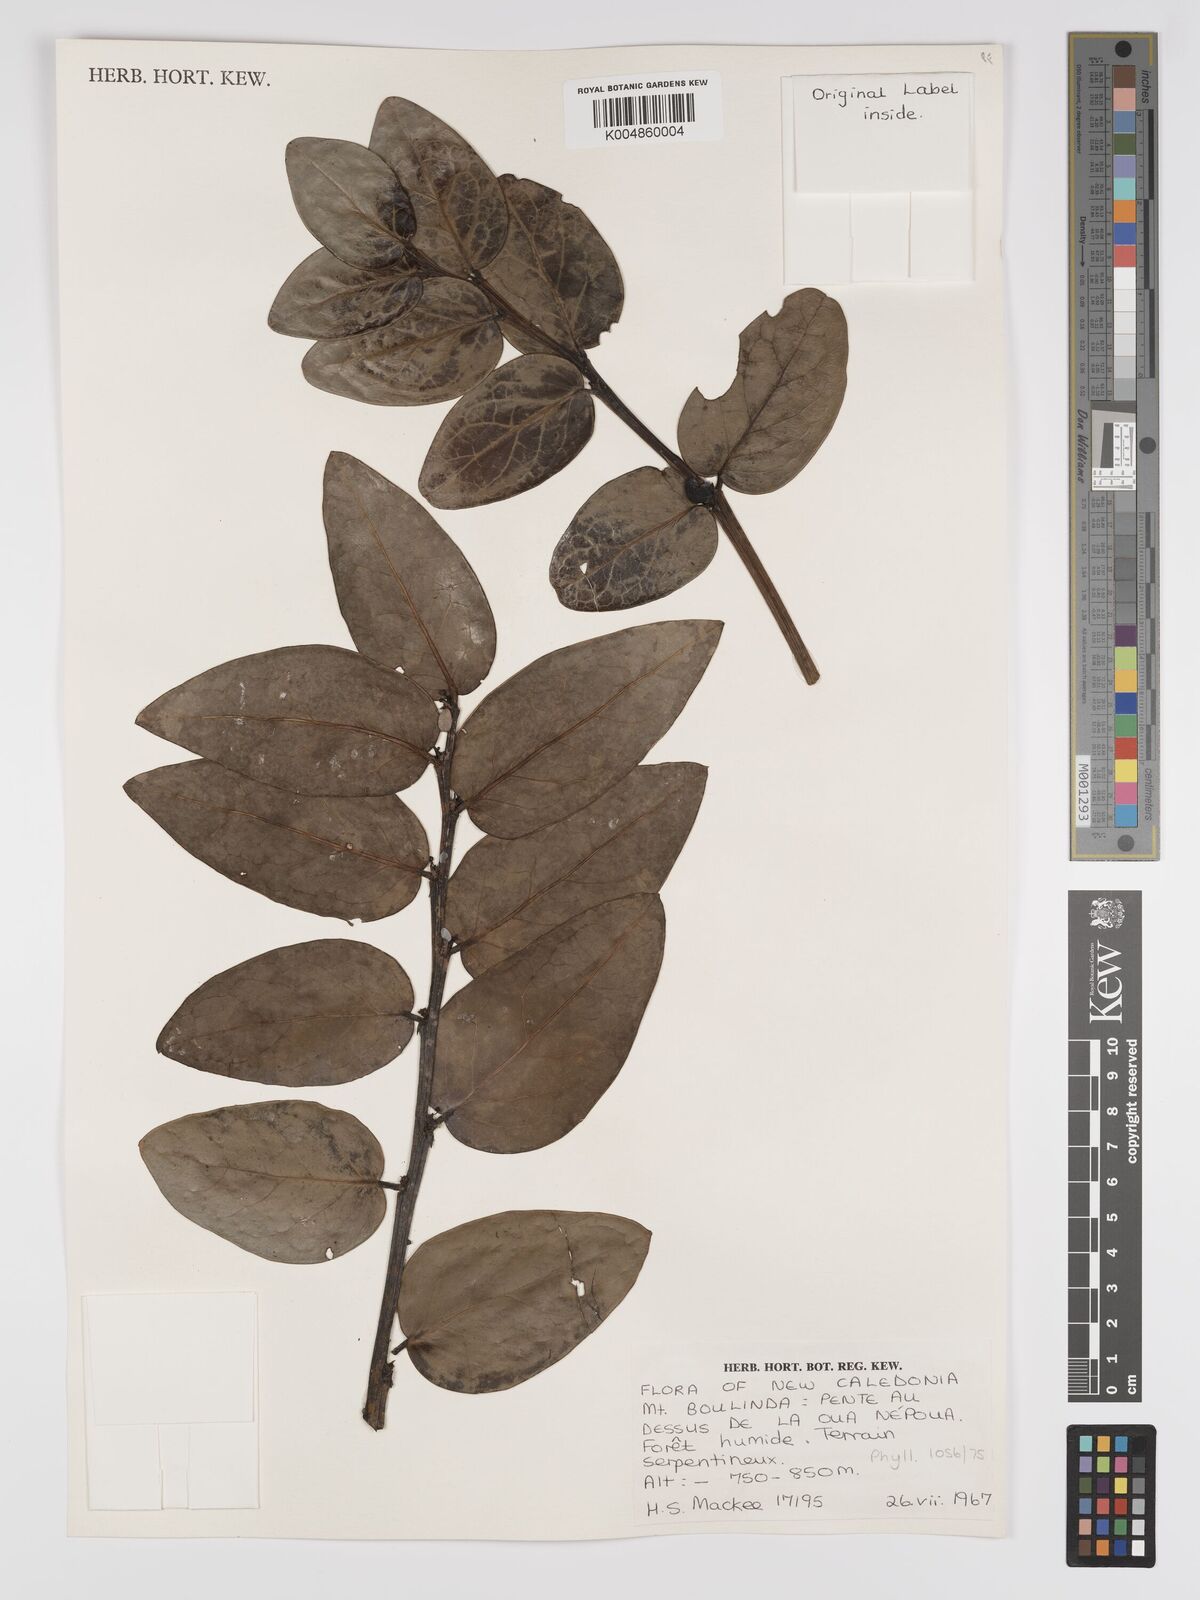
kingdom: Plantae
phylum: Tracheophyta
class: Magnoliopsida
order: Malpighiales
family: Phyllanthaceae
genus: Phyllanthus
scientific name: Phyllanthus
